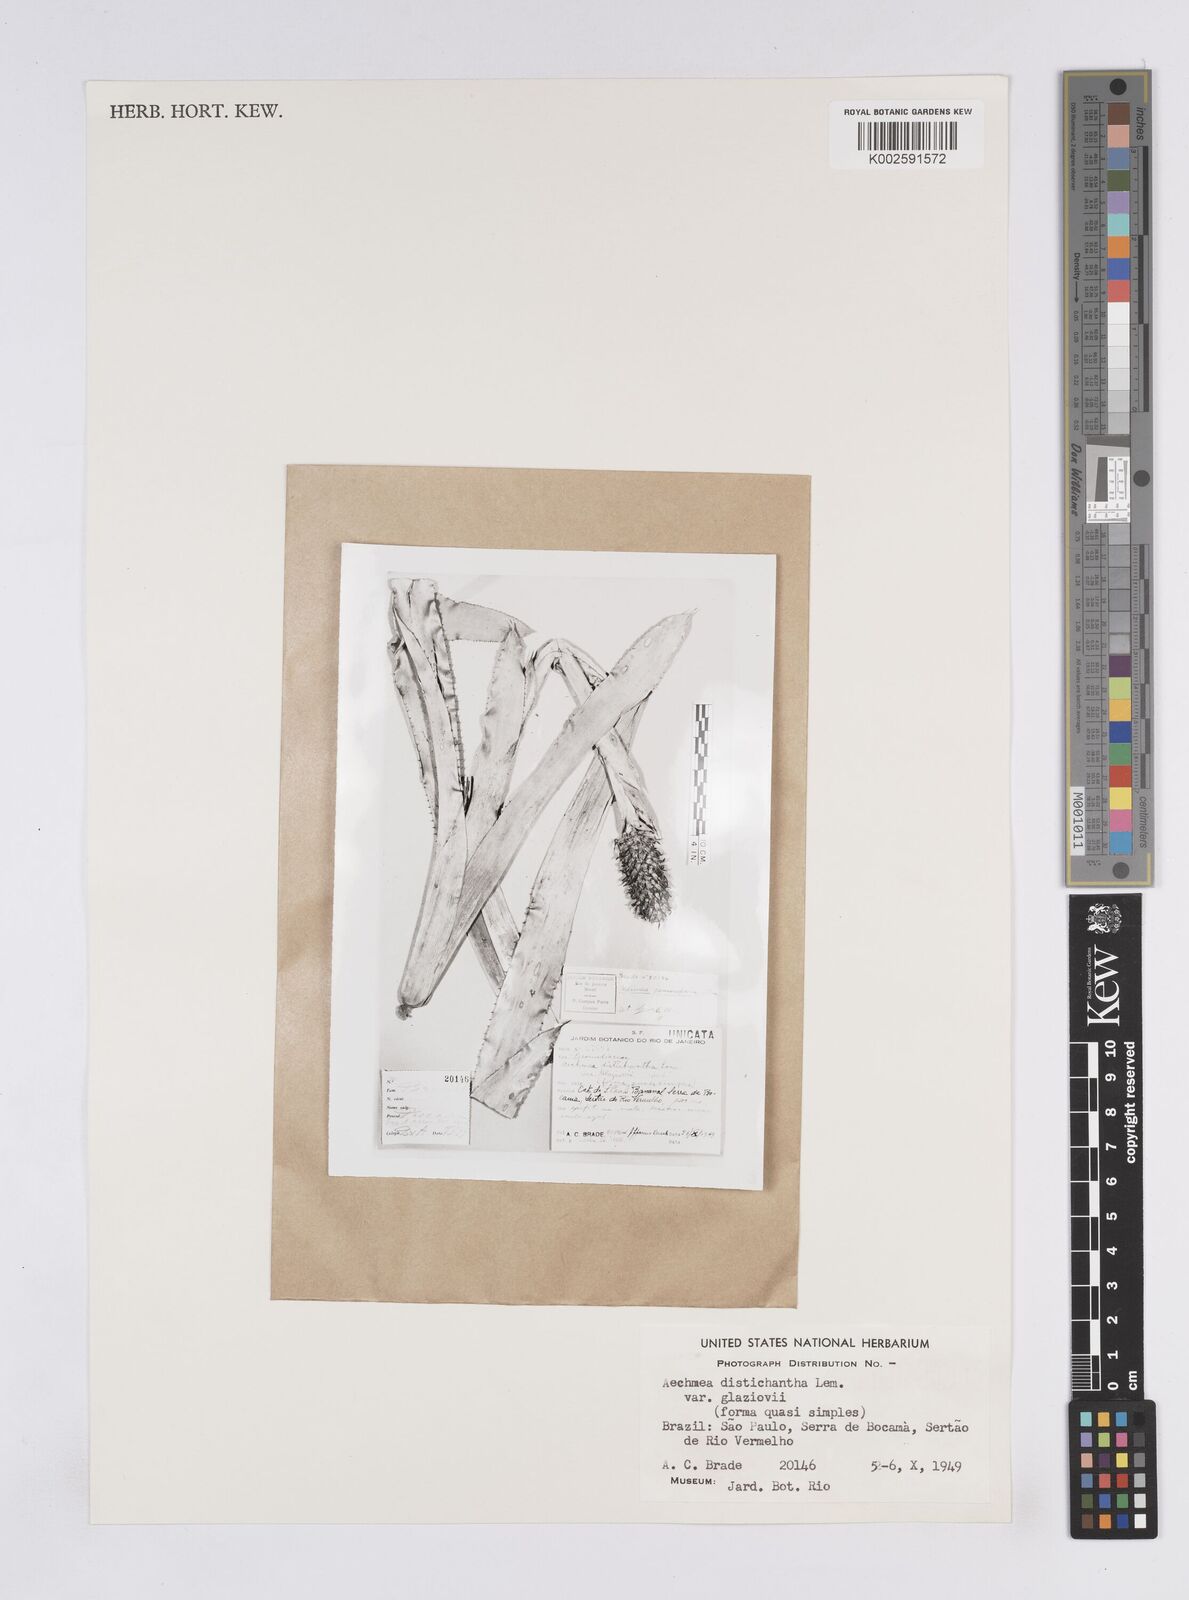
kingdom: Plantae
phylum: Tracheophyta
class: Liliopsida
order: Poales
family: Bromeliaceae
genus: Aechmea
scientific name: Aechmea distichantha
